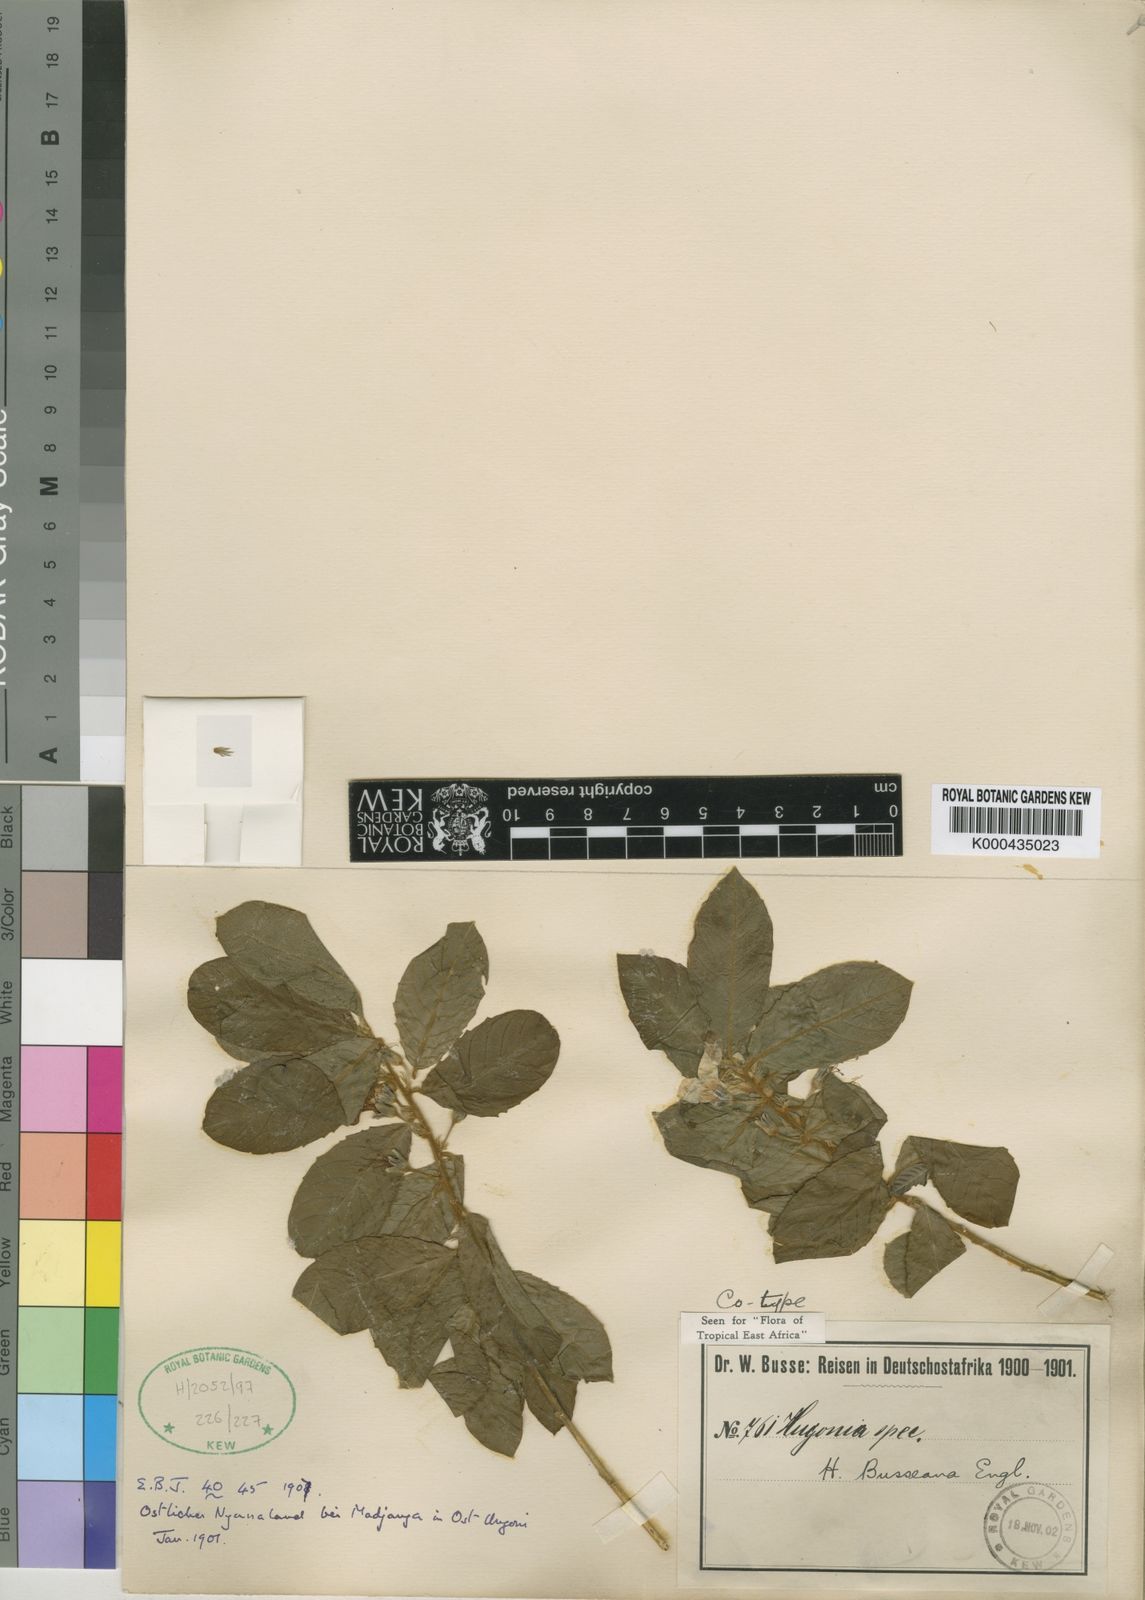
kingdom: Plantae
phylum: Tracheophyta
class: Magnoliopsida
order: Malpighiales
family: Linaceae
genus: Hugonia
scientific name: Hugonia busseana
